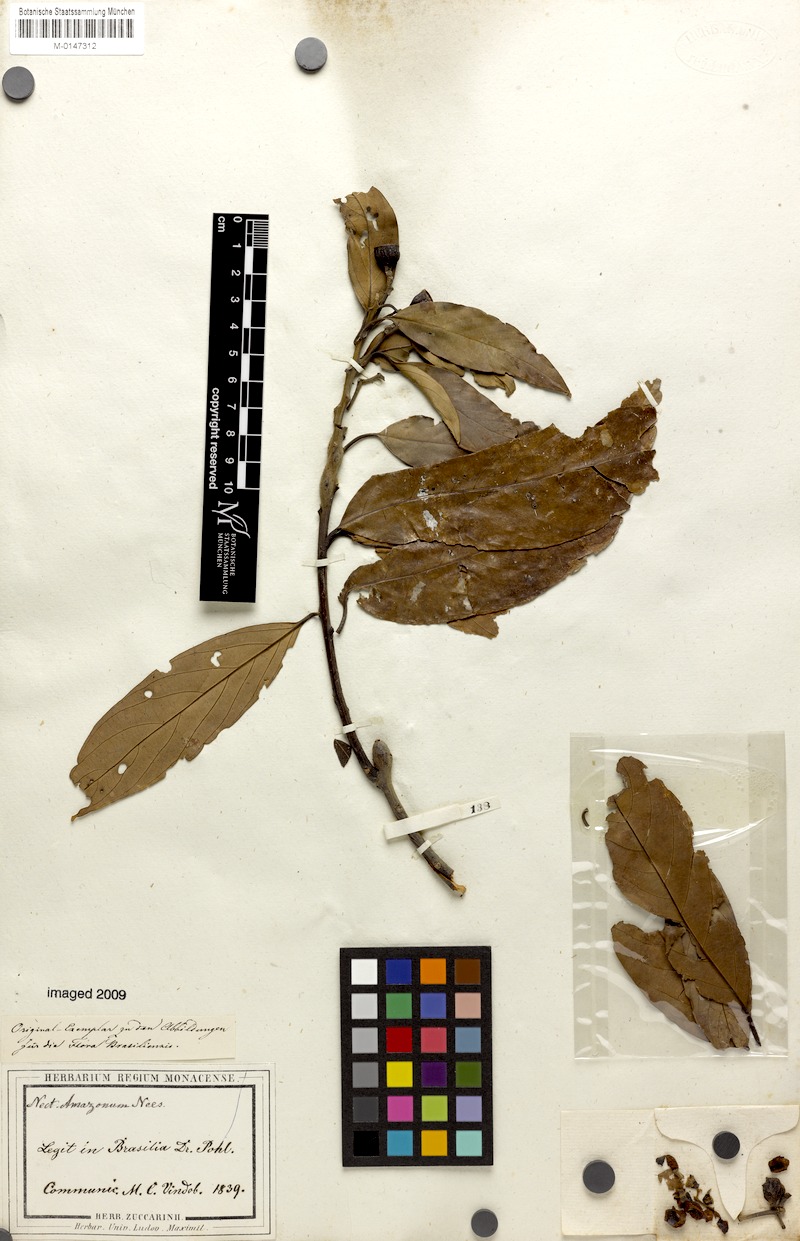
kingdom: Plantae
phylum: Tracheophyta
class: Magnoliopsida
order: Laurales
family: Lauraceae
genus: Nectandra
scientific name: Nectandra amazonum
